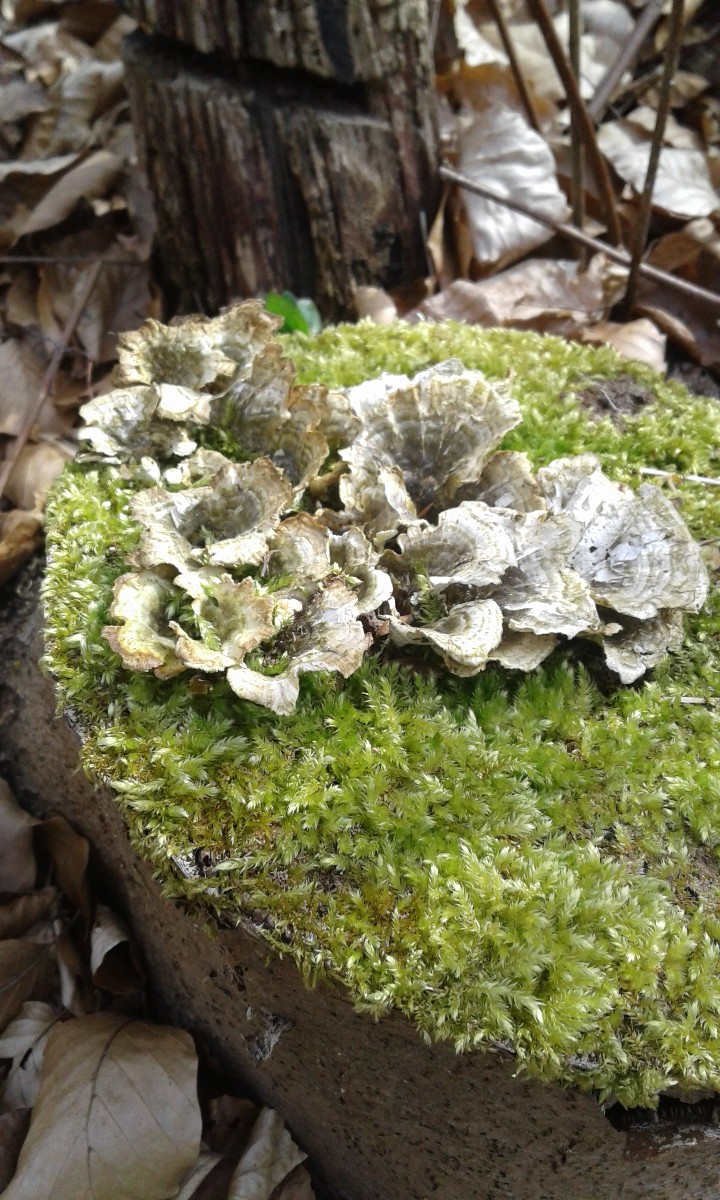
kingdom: Fungi
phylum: Basidiomycota
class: Agaricomycetes
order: Polyporales
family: Polyporaceae
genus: Trametes
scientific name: Trametes versicolor
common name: broget læderporesvamp
